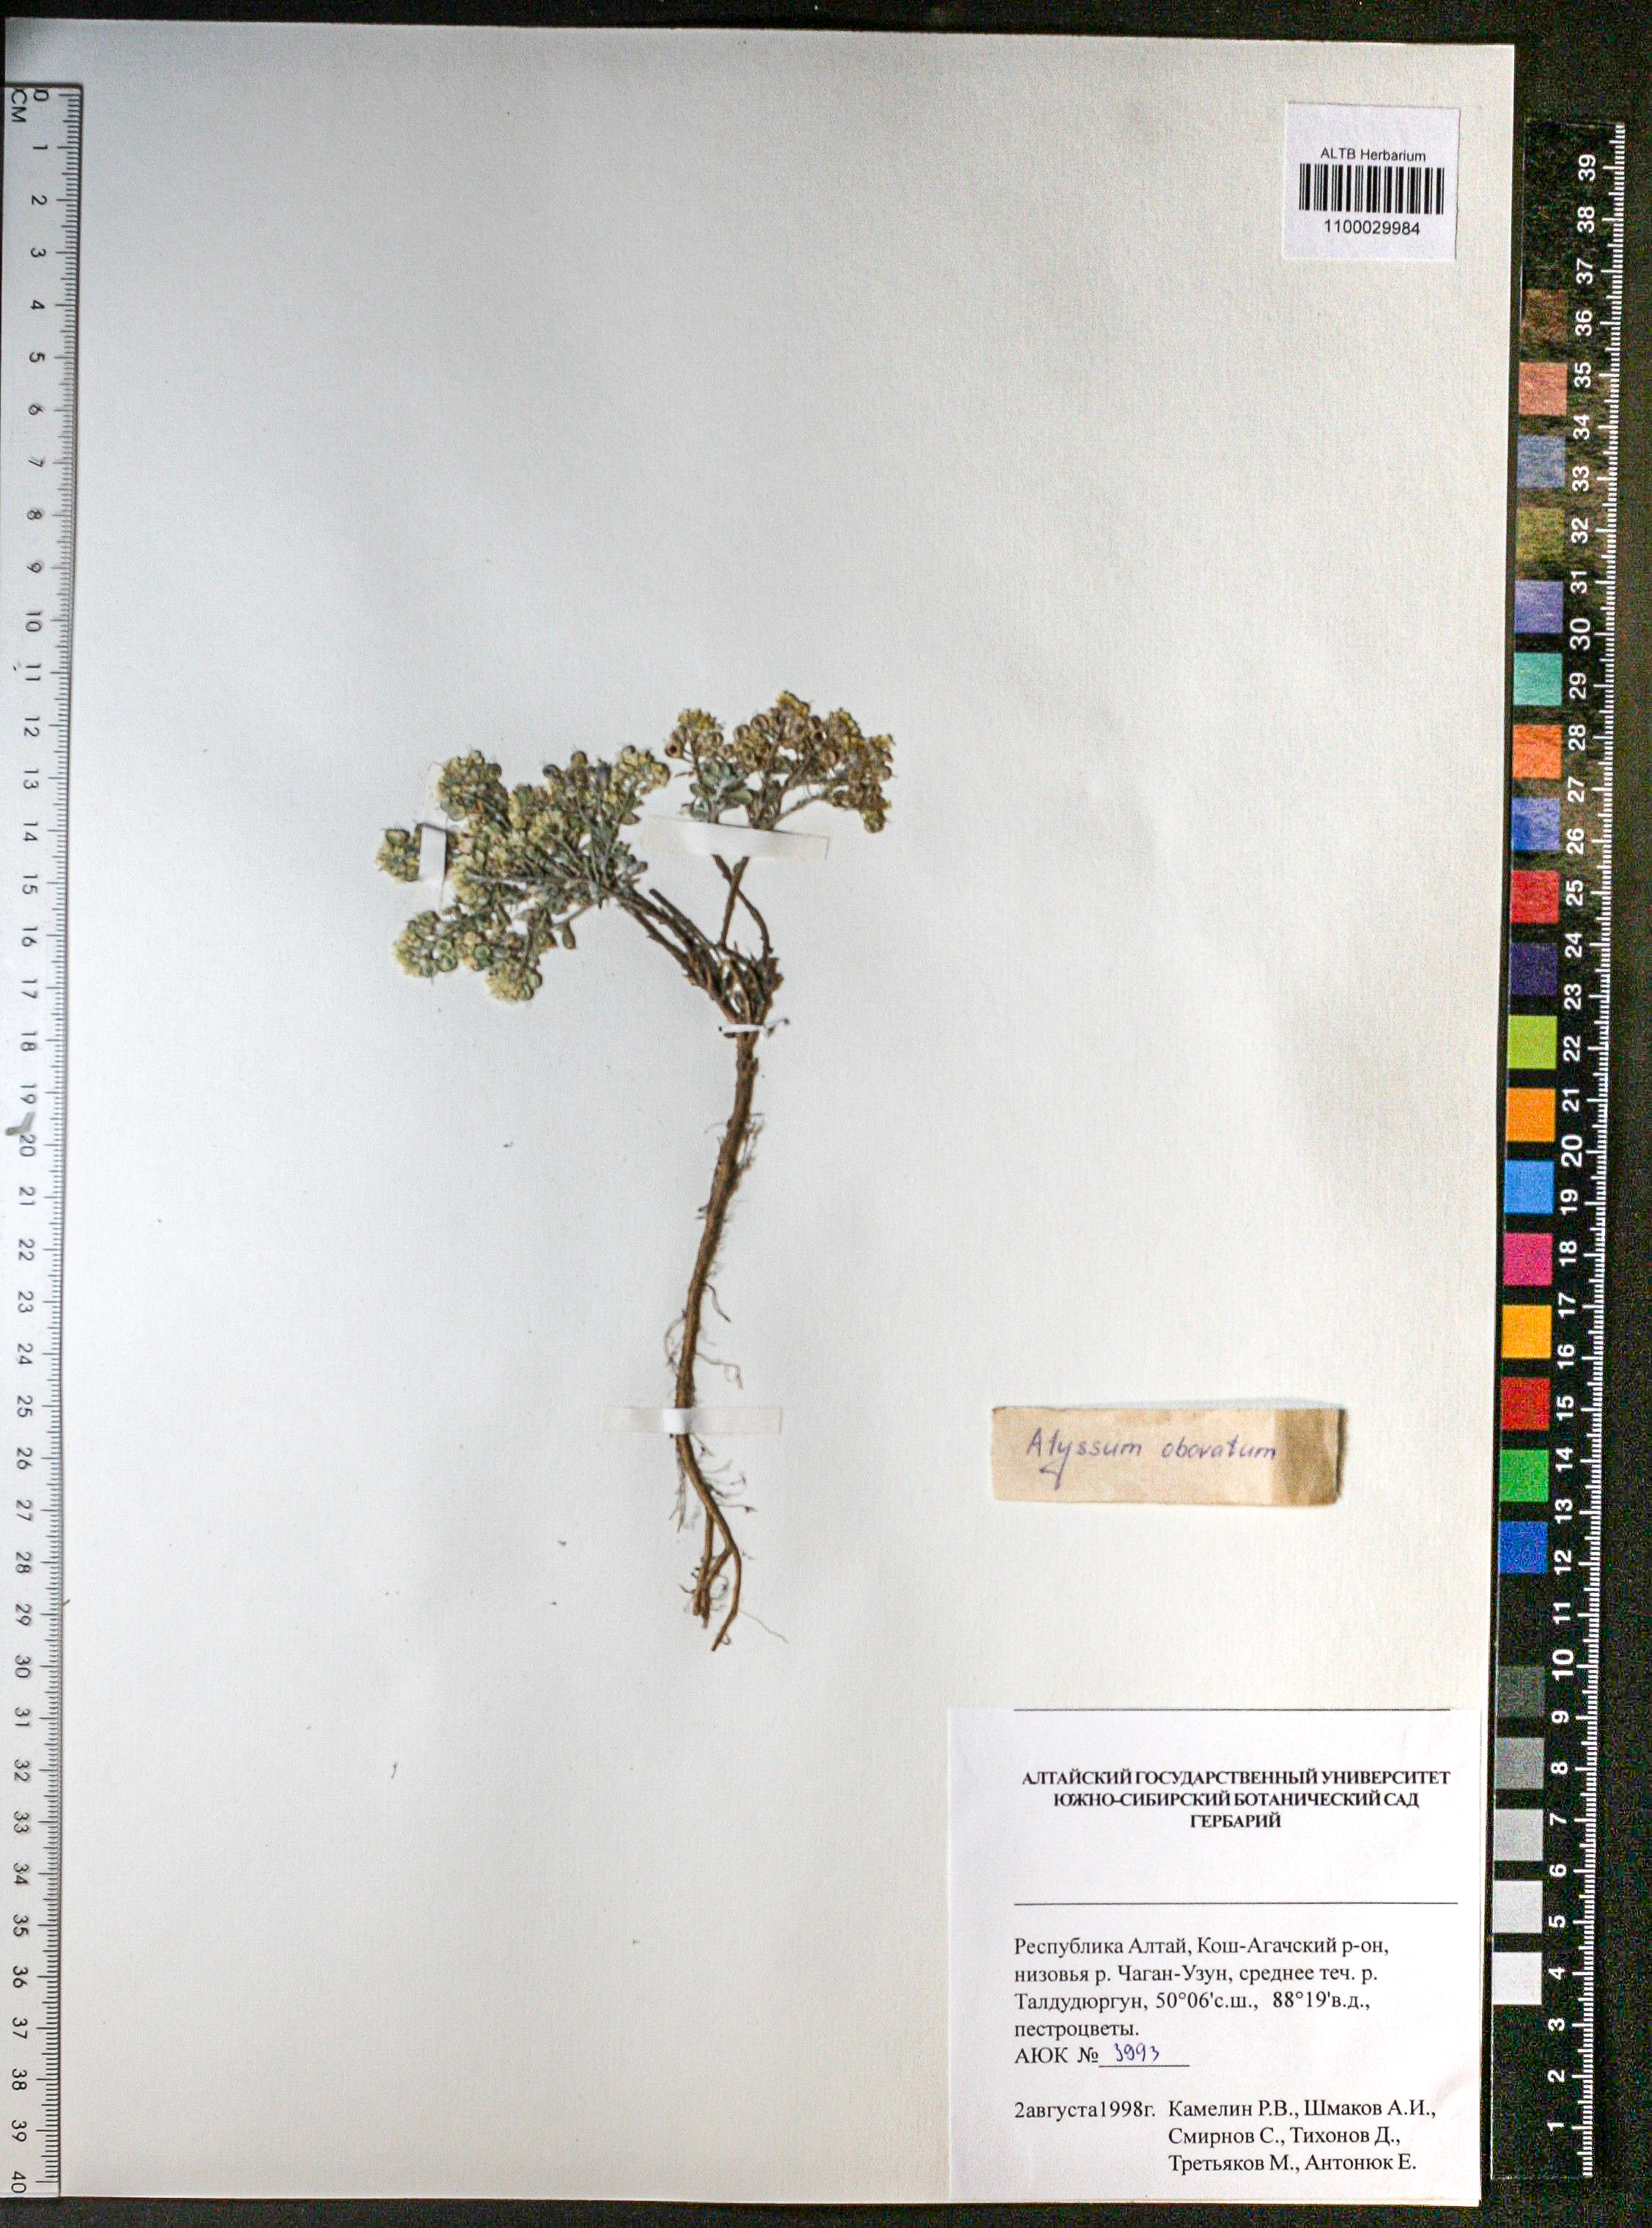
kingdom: Plantae
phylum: Tracheophyta
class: Magnoliopsida
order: Brassicales
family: Brassicaceae
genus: Odontarrhena
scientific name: Odontarrhena obovata
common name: American alyssum
